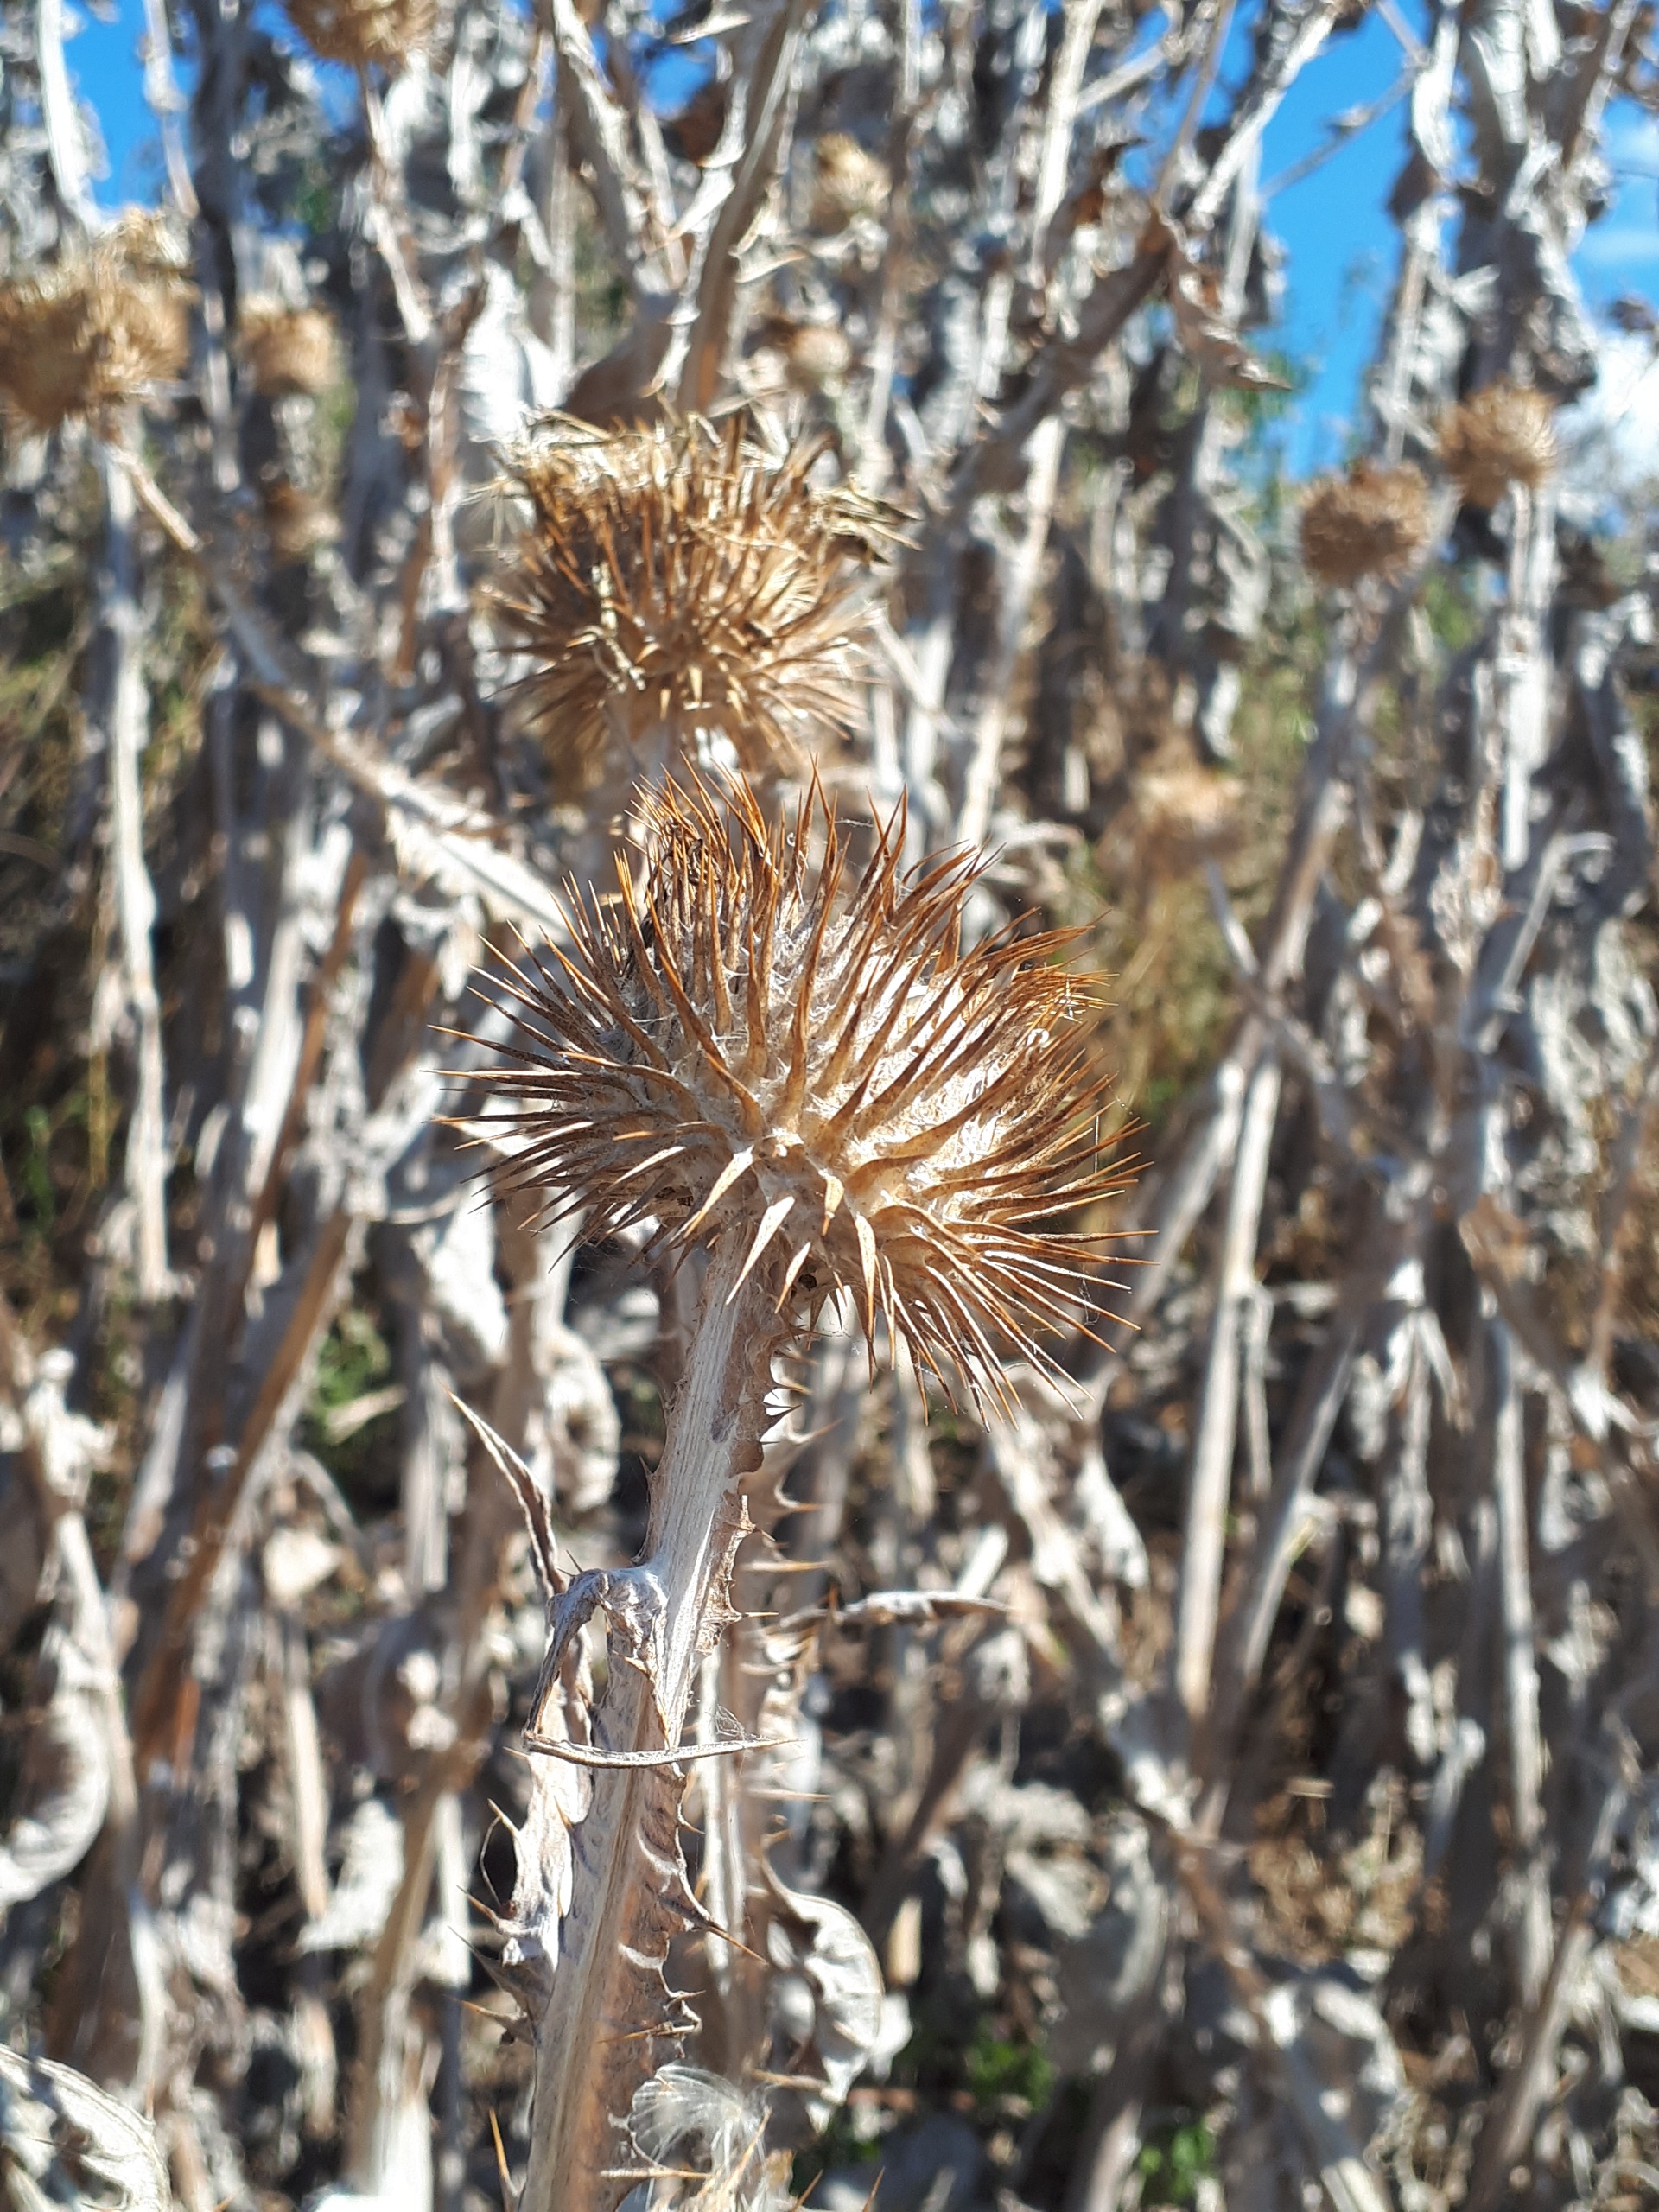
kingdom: Plantae
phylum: Tracheophyta
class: Magnoliopsida
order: Asterales
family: Asteraceae
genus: Onopordum
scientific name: Onopordum acanthium
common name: Æselfoder
